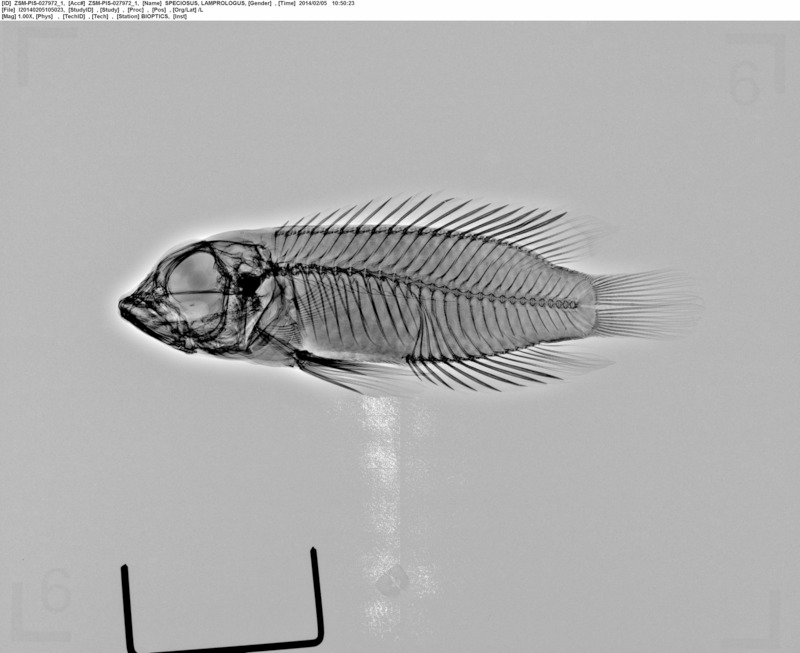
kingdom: Animalia
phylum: Chordata
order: Perciformes
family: Cichlidae
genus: Lamprologus
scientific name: Lamprologus speciosus
